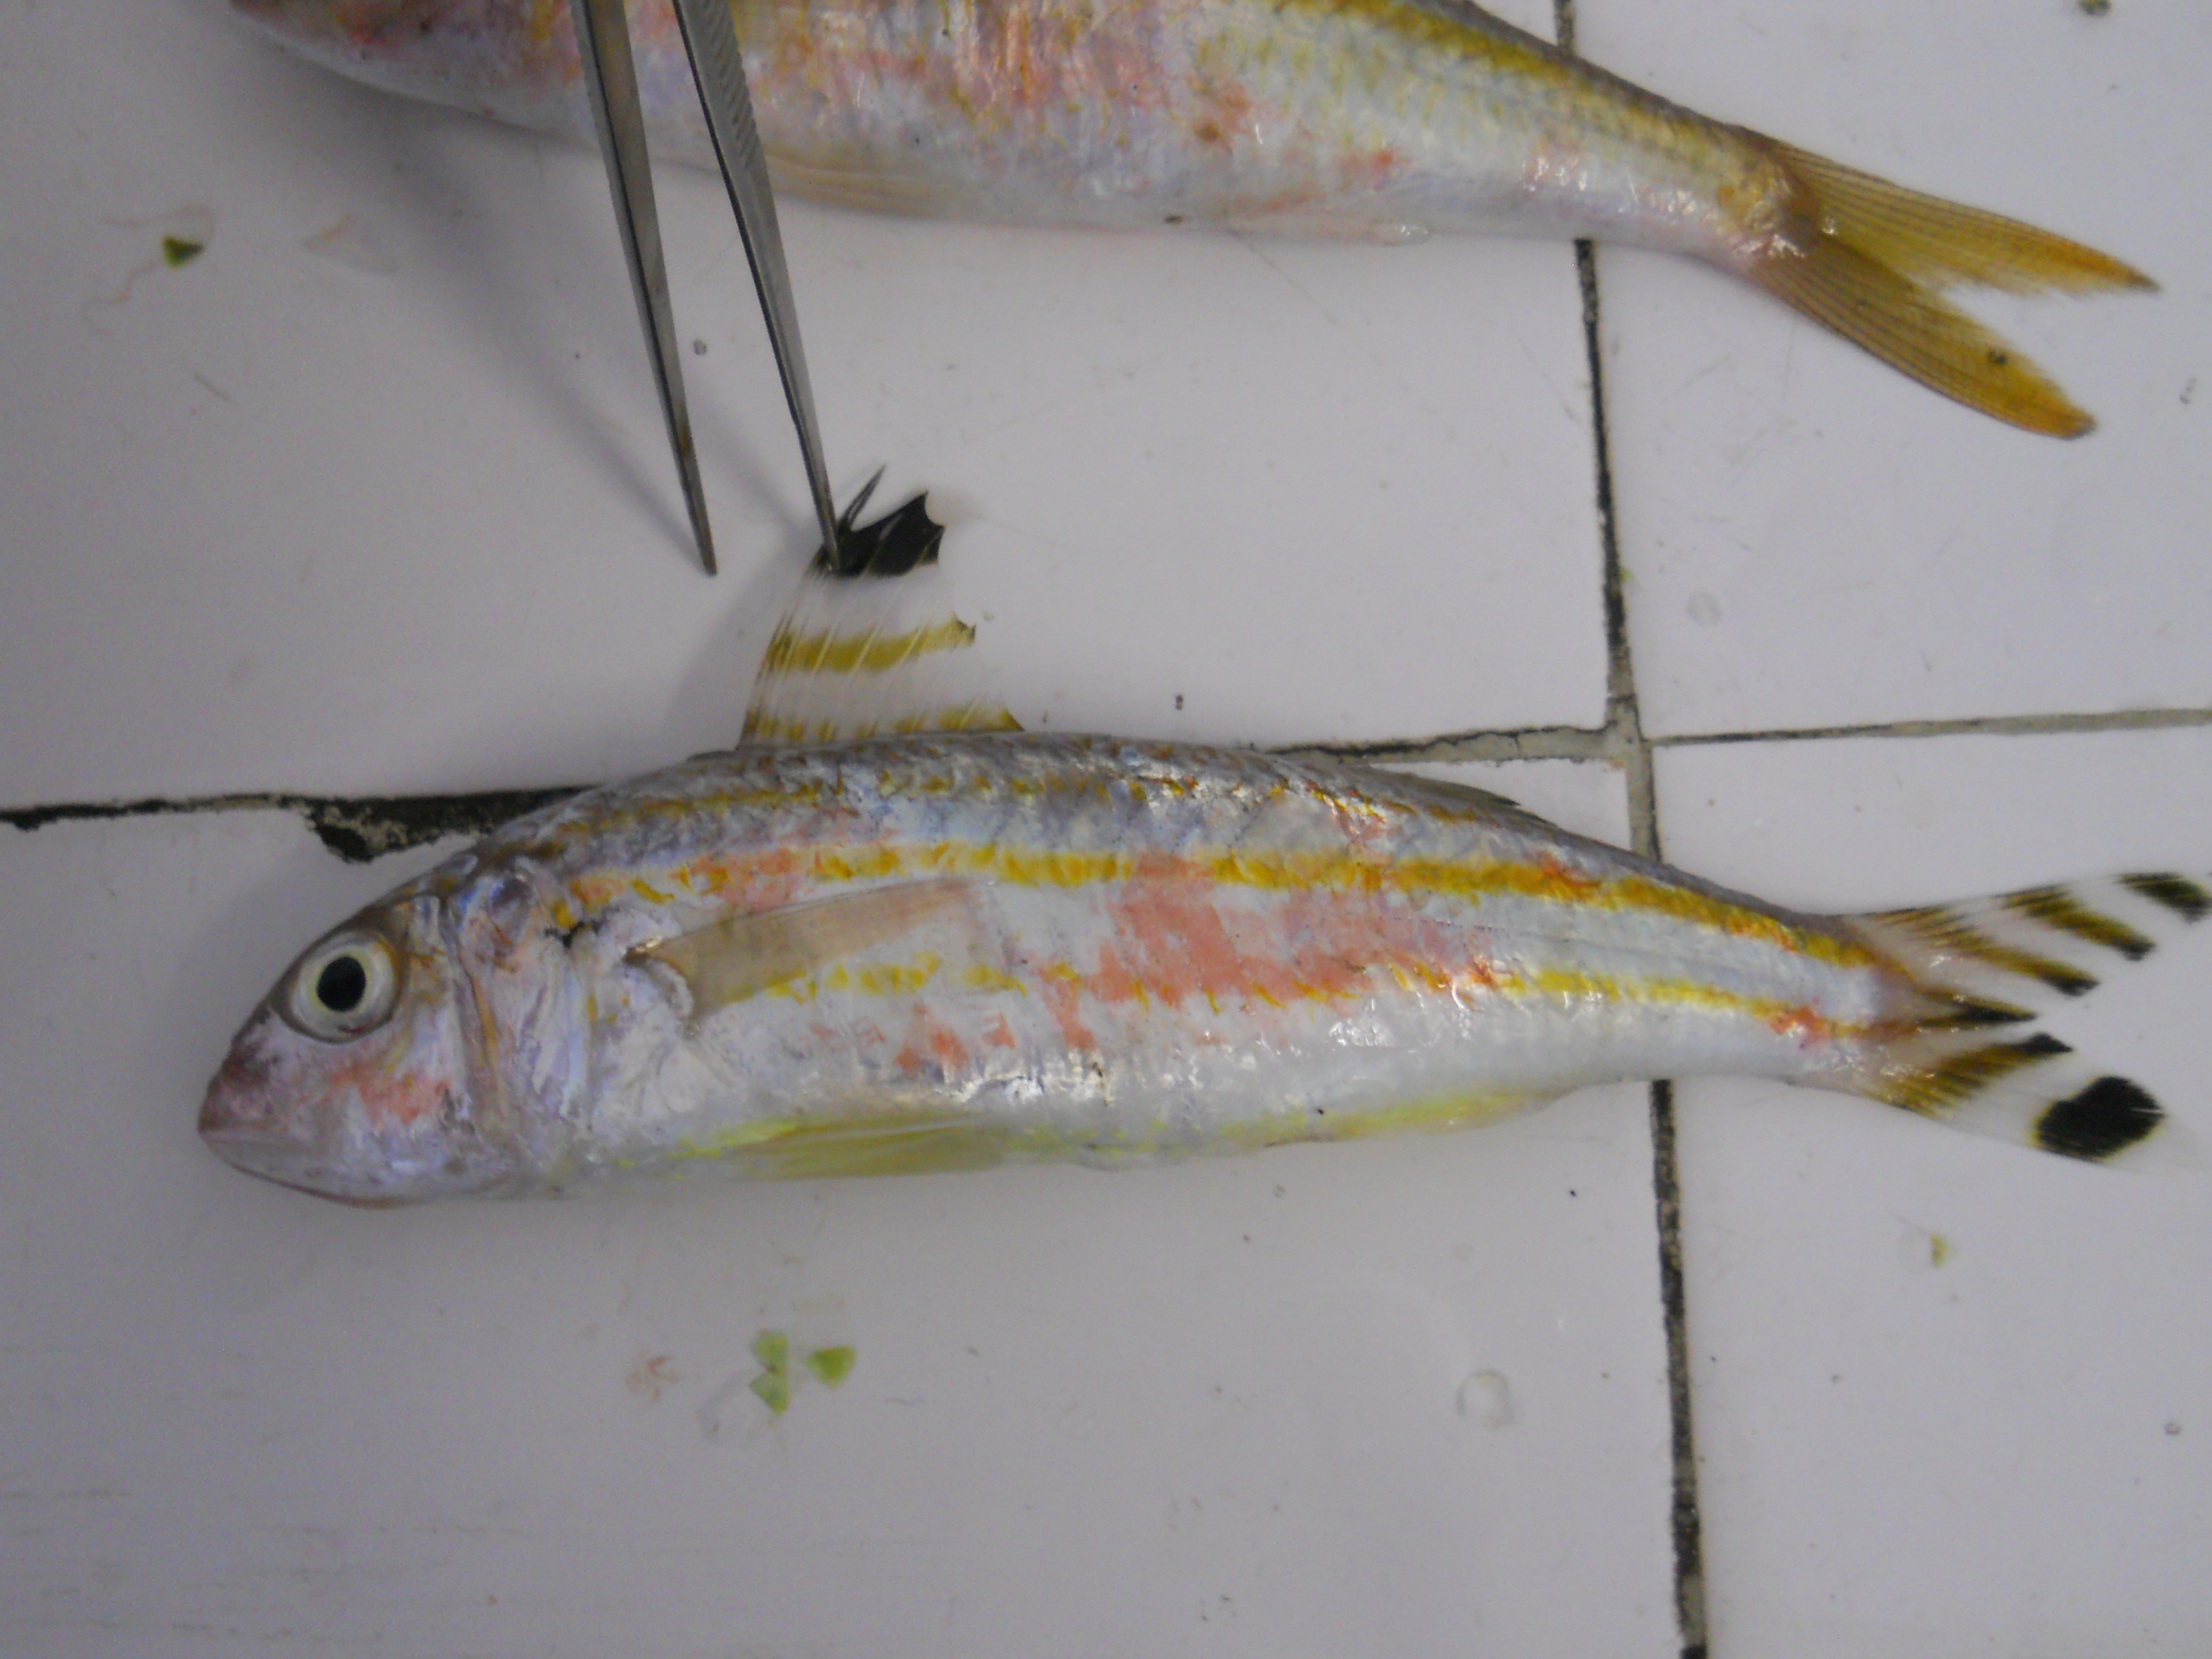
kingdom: Animalia
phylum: Chordata
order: Perciformes
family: Mullidae
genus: Upeneus
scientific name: Upeneus vittatus
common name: Striped goatfish
